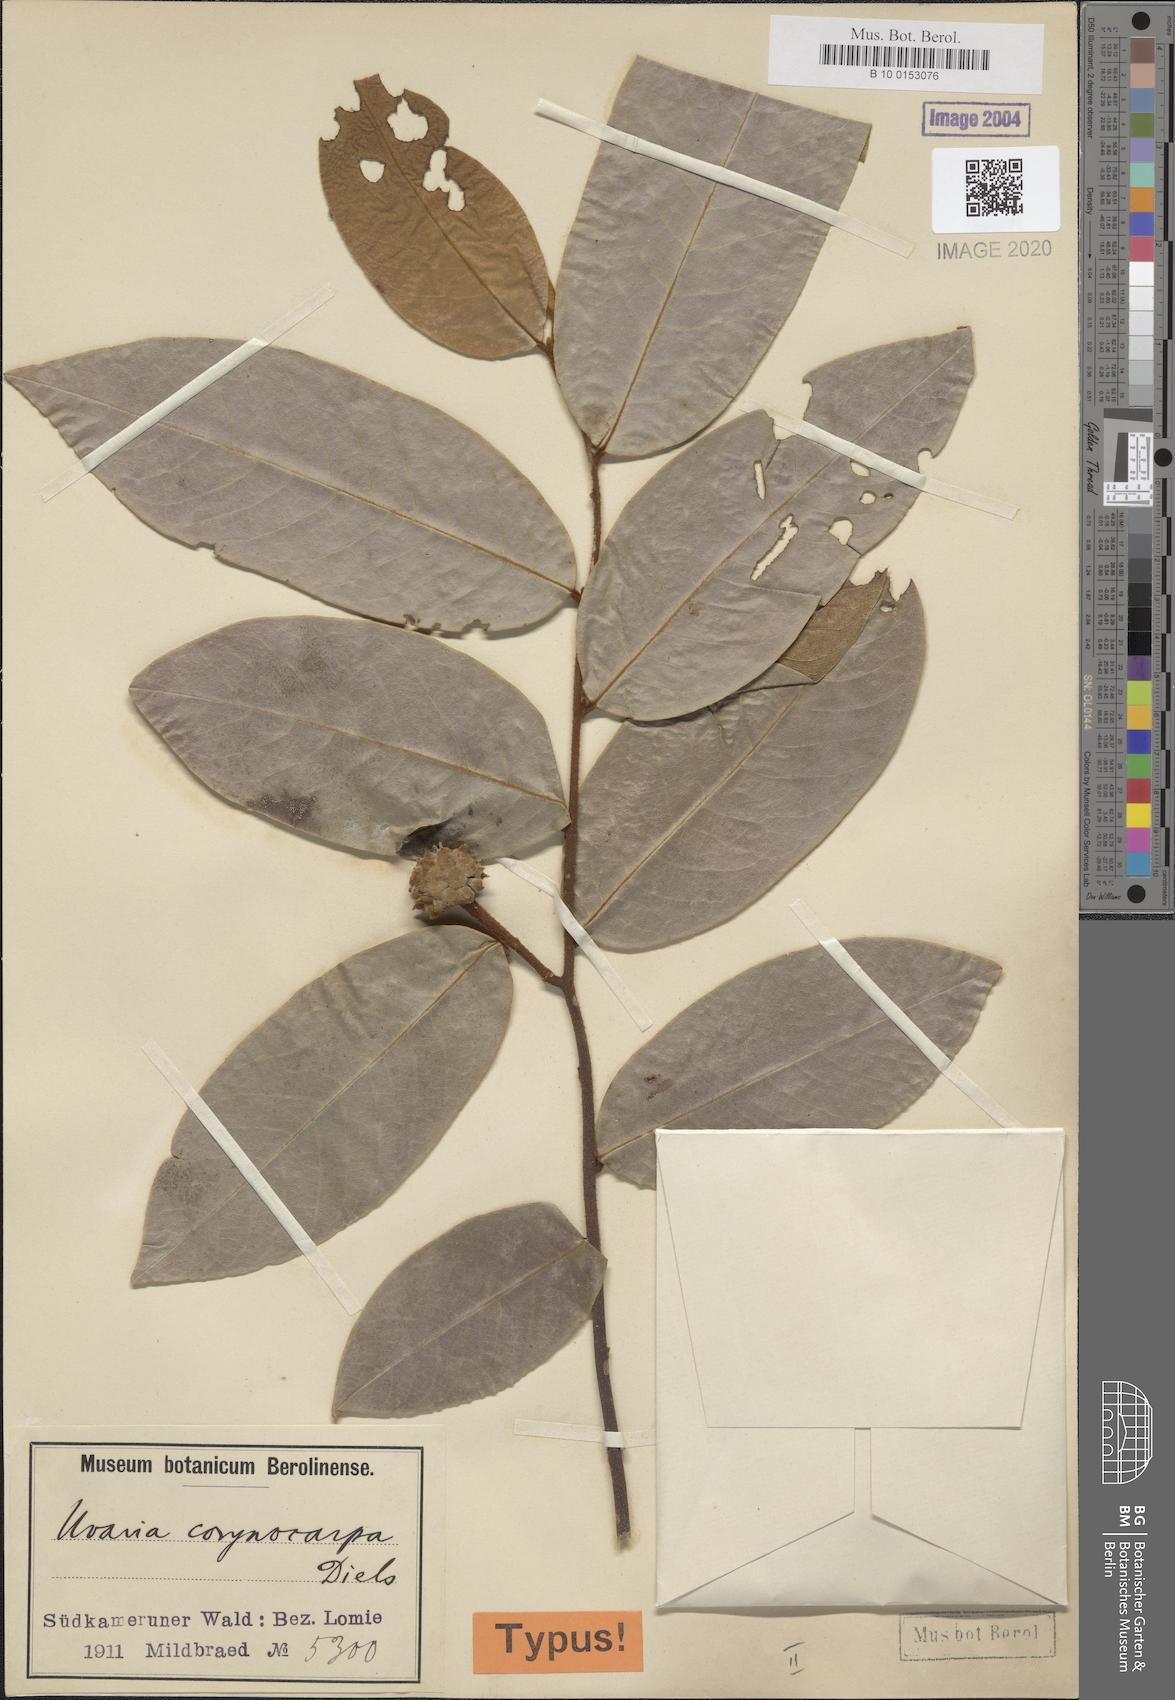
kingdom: Plantae
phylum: Tracheophyta
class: Magnoliopsida
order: Magnoliales
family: Annonaceae
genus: Uvaria
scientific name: Uvaria scabrida
